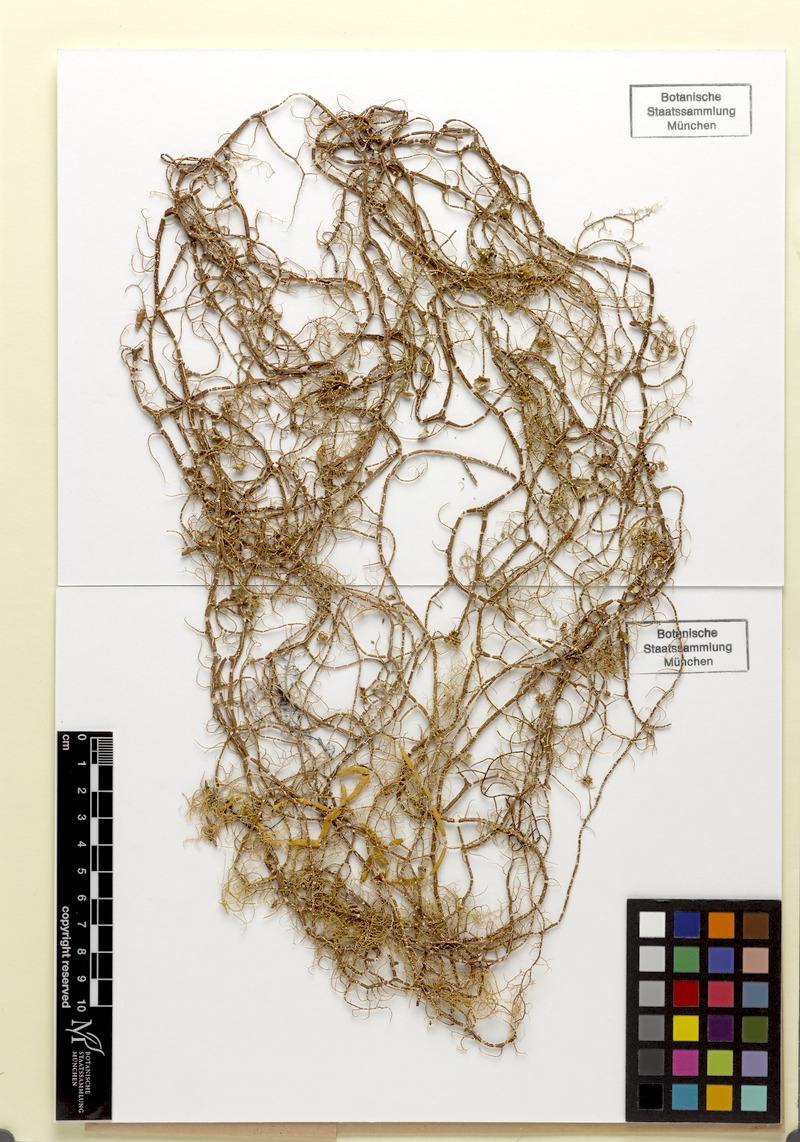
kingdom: Fungi
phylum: Ascomycota
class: Lecanoromycetes
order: Lecanorales
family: Parmeliaceae
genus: Usnea
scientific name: Usnea decipiens
